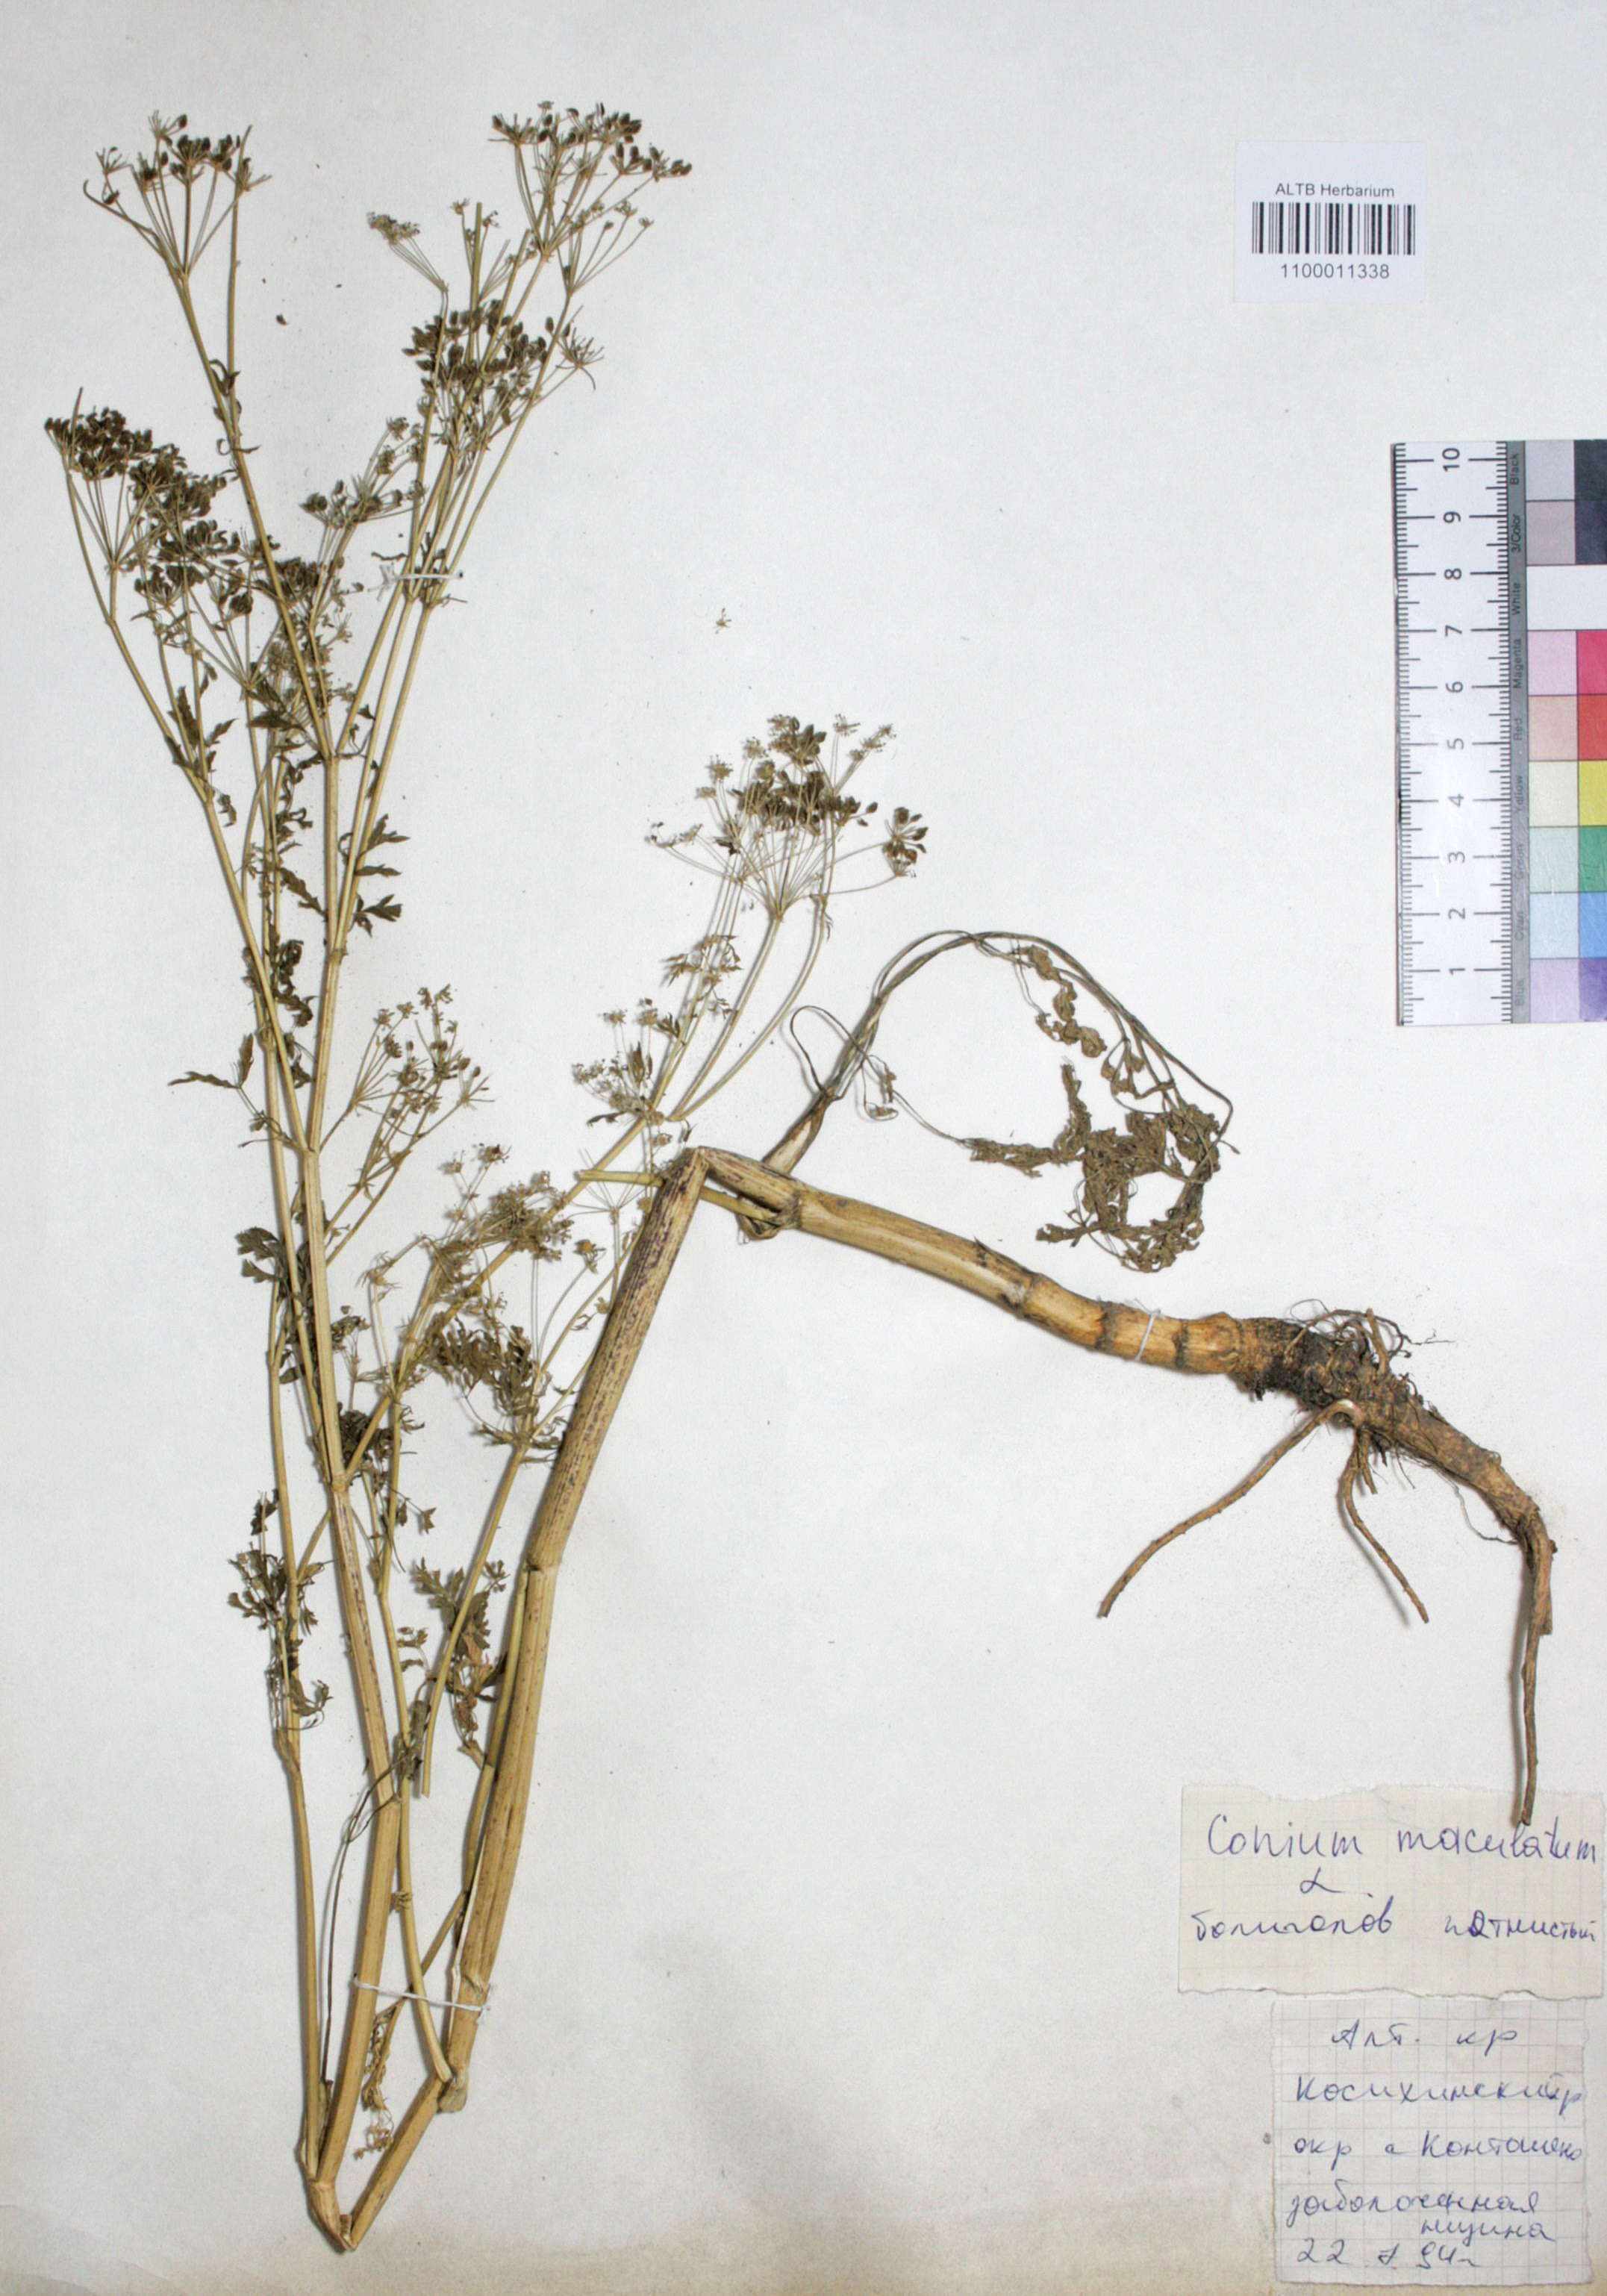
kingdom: Plantae
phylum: Tracheophyta
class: Magnoliopsida
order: Apiales
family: Apiaceae
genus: Conium
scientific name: Conium maculatum
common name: Hemlock
